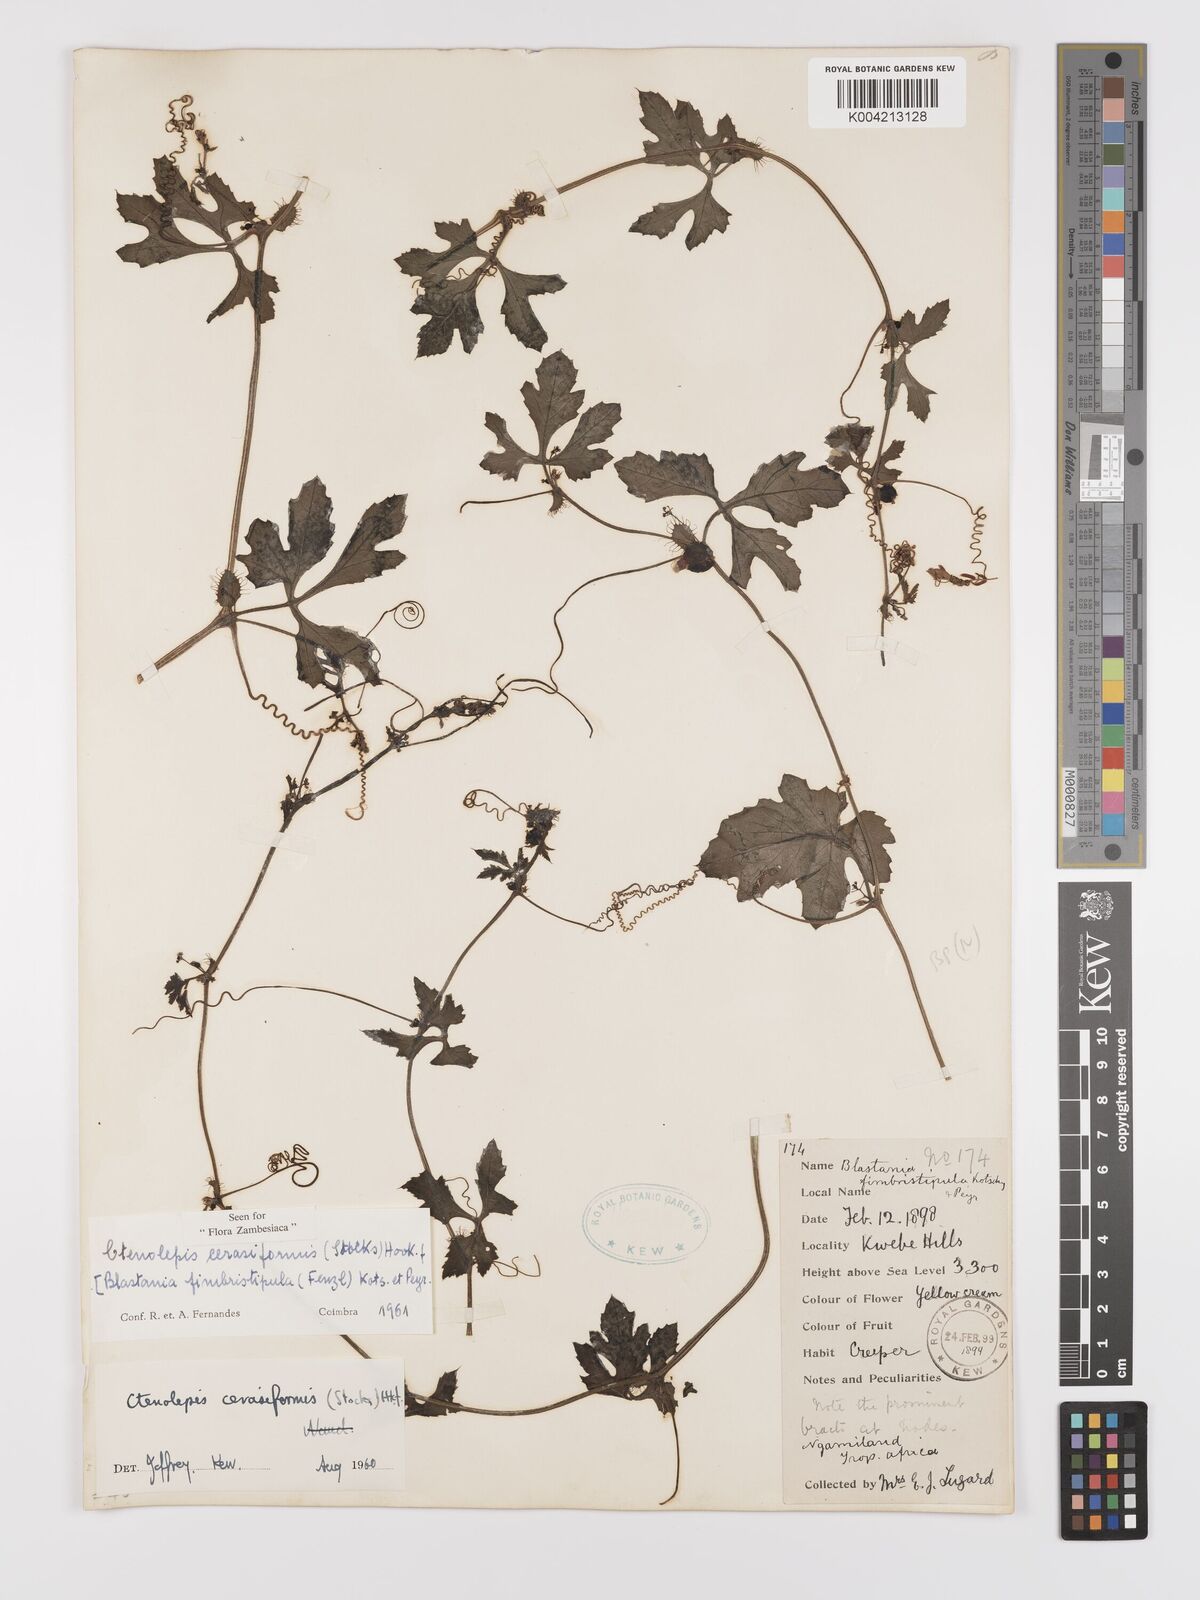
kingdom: Plantae
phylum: Tracheophyta
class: Magnoliopsida
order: Cucurbitales
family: Cucurbitaceae
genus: Blastania
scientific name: Blastania cerasiformis
